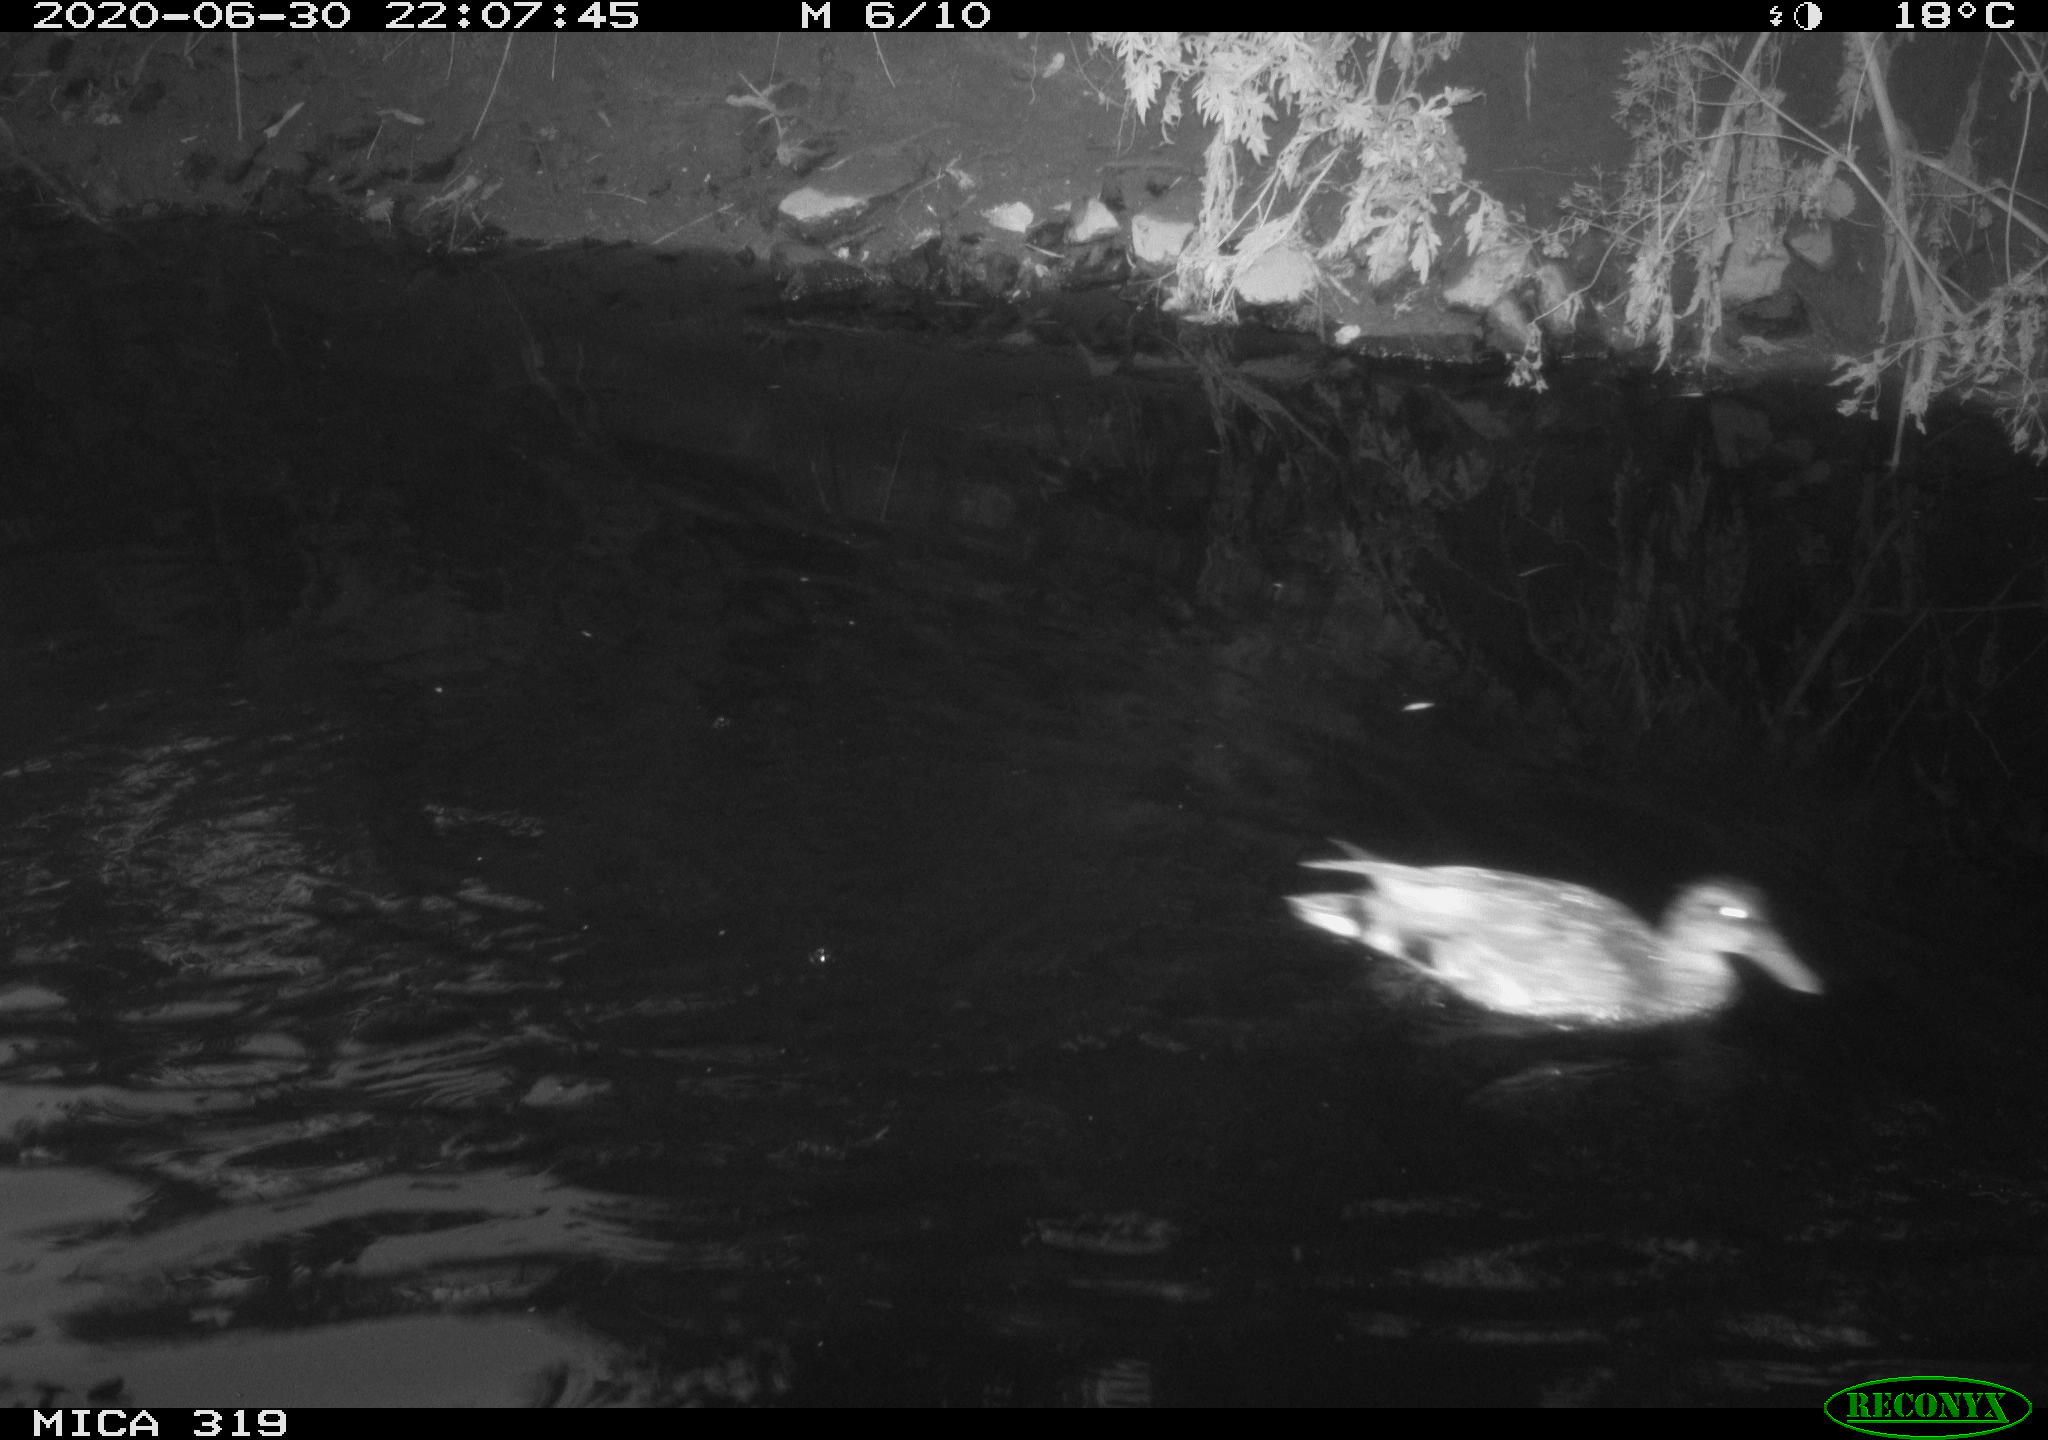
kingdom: Animalia
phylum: Chordata
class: Aves
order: Anseriformes
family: Anatidae
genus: Anas
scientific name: Anas platyrhynchos
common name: Mallard
